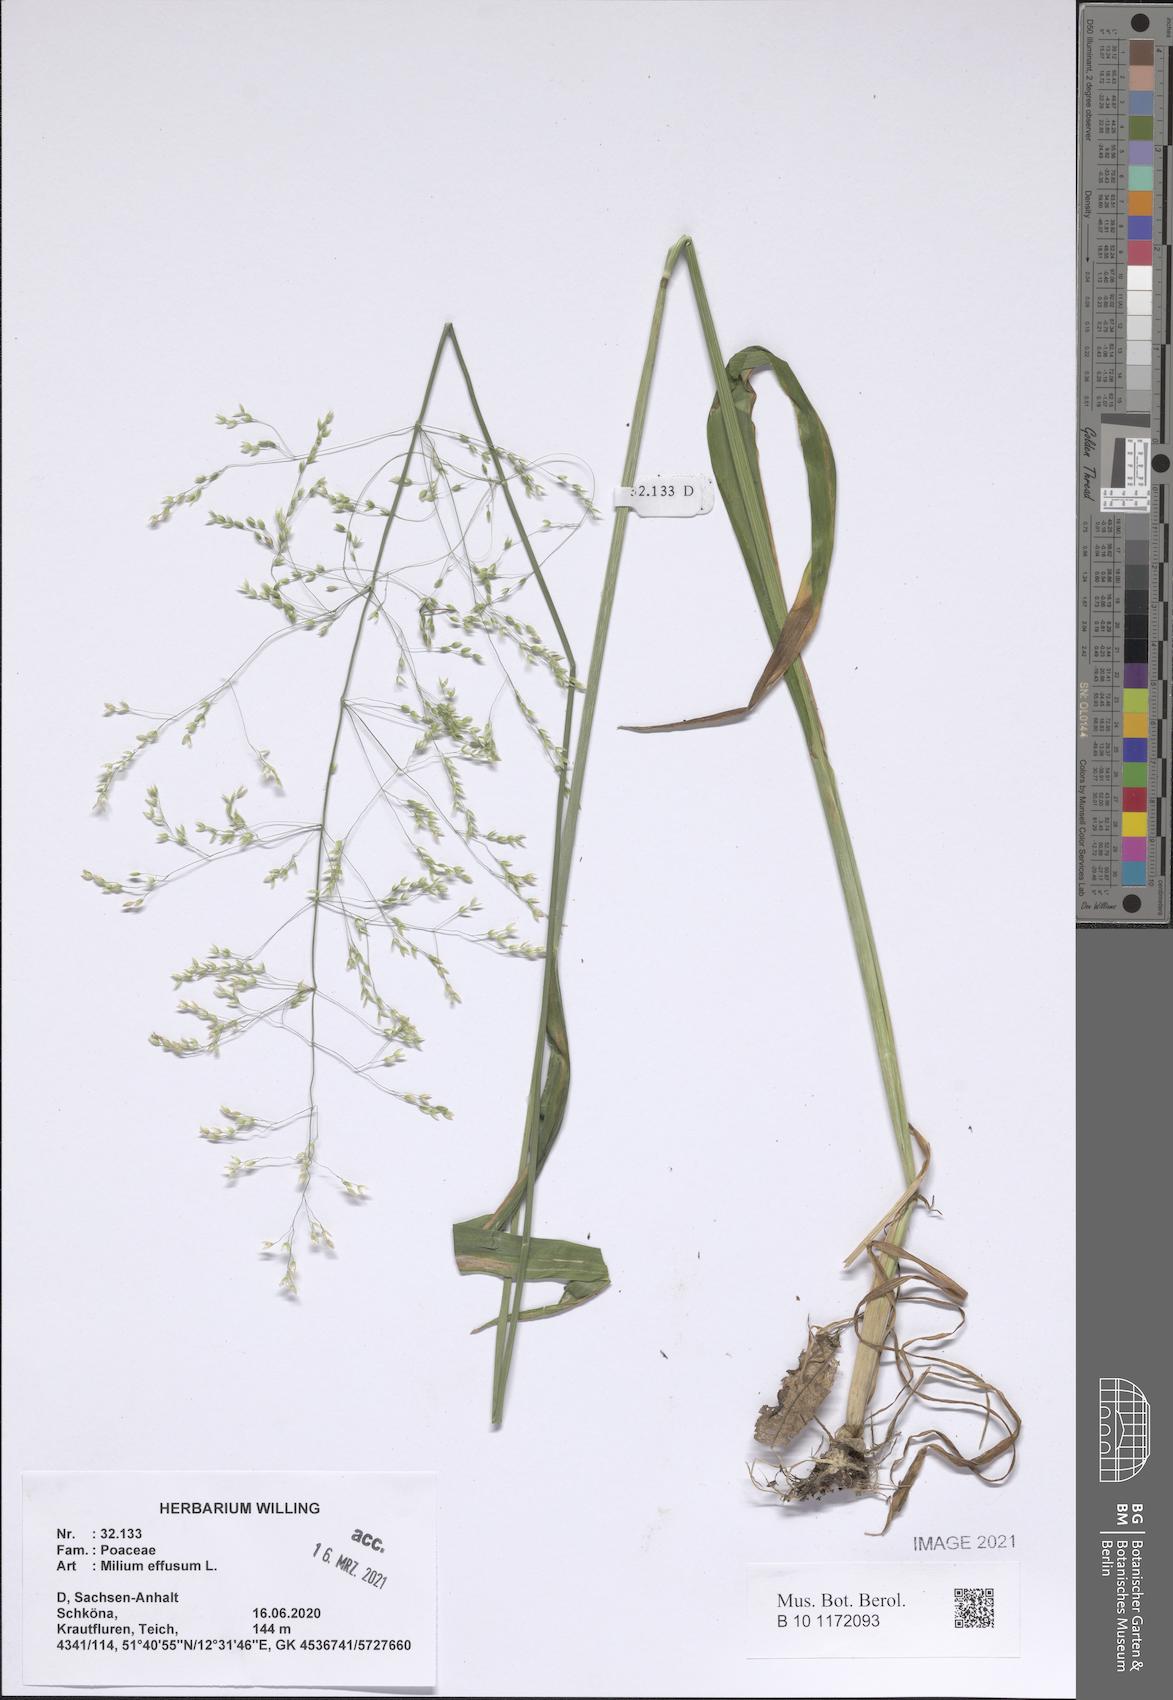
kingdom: Plantae
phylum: Tracheophyta
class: Liliopsida
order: Poales
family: Poaceae
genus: Milium
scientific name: Milium effusum
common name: Wood millet
